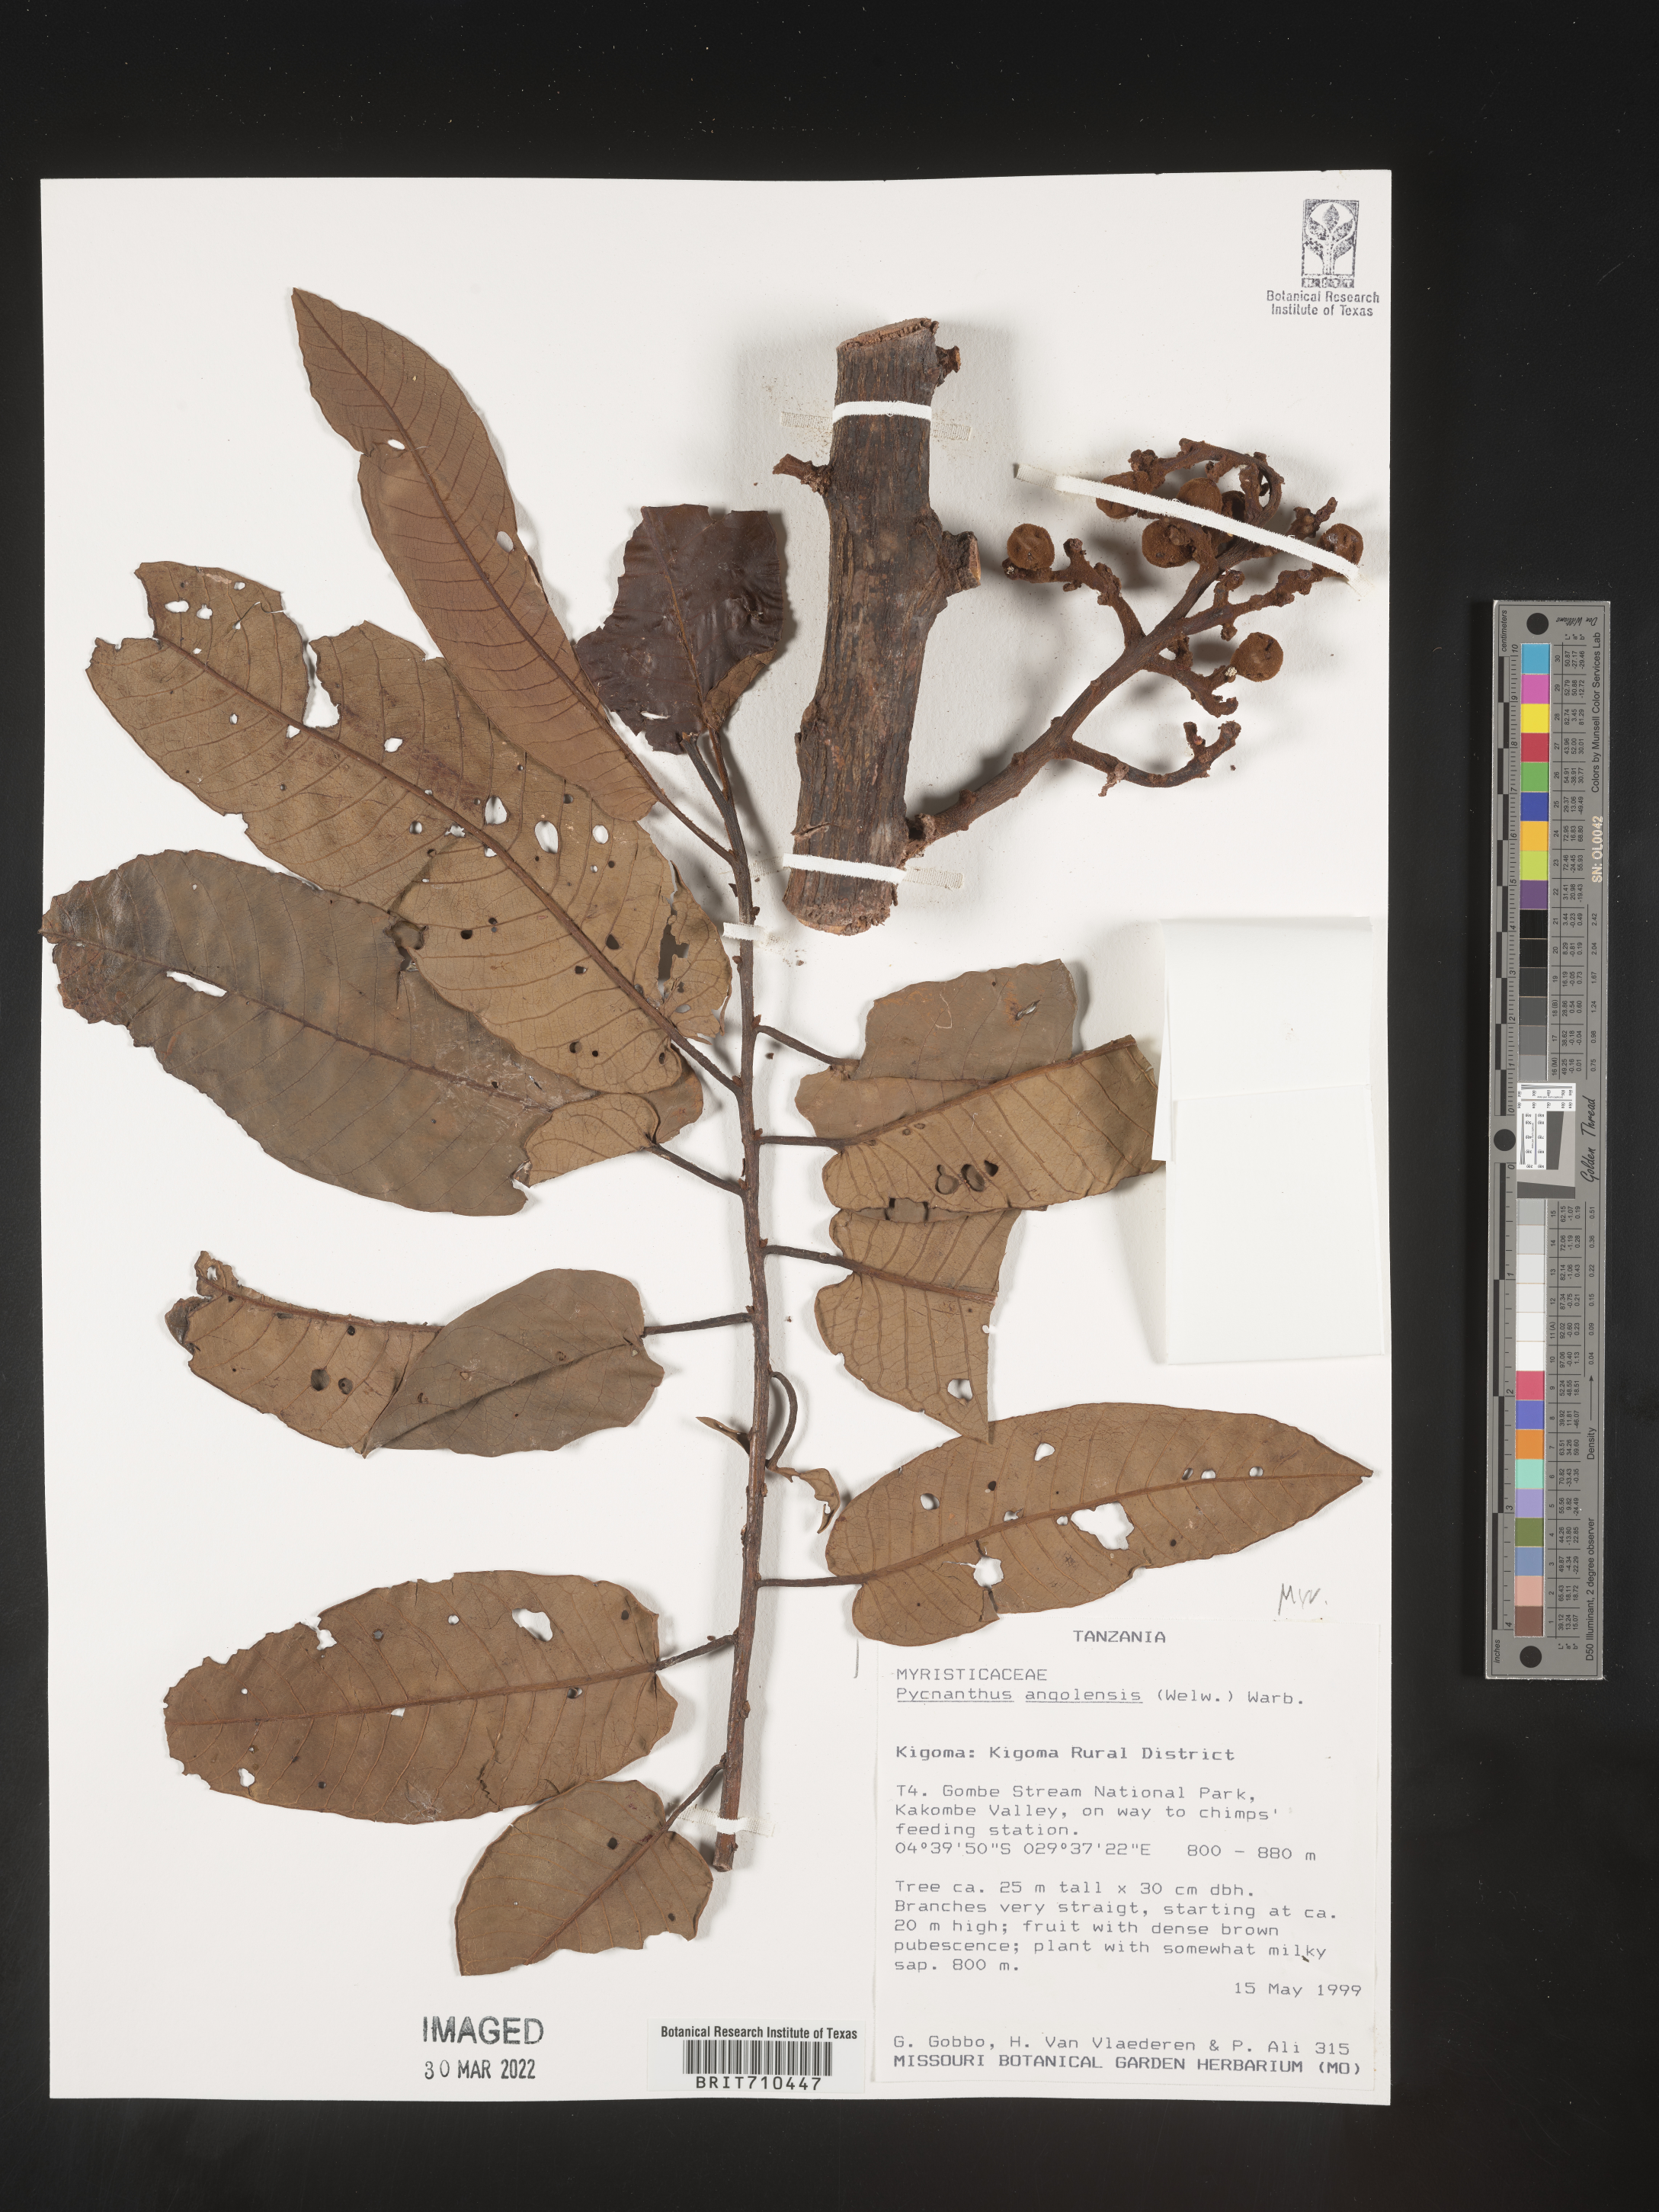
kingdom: Plantae
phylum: Tracheophyta
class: Magnoliopsida
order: Magnoliales
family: Myristicaceae
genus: Pycnanthus
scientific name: Pycnanthus
